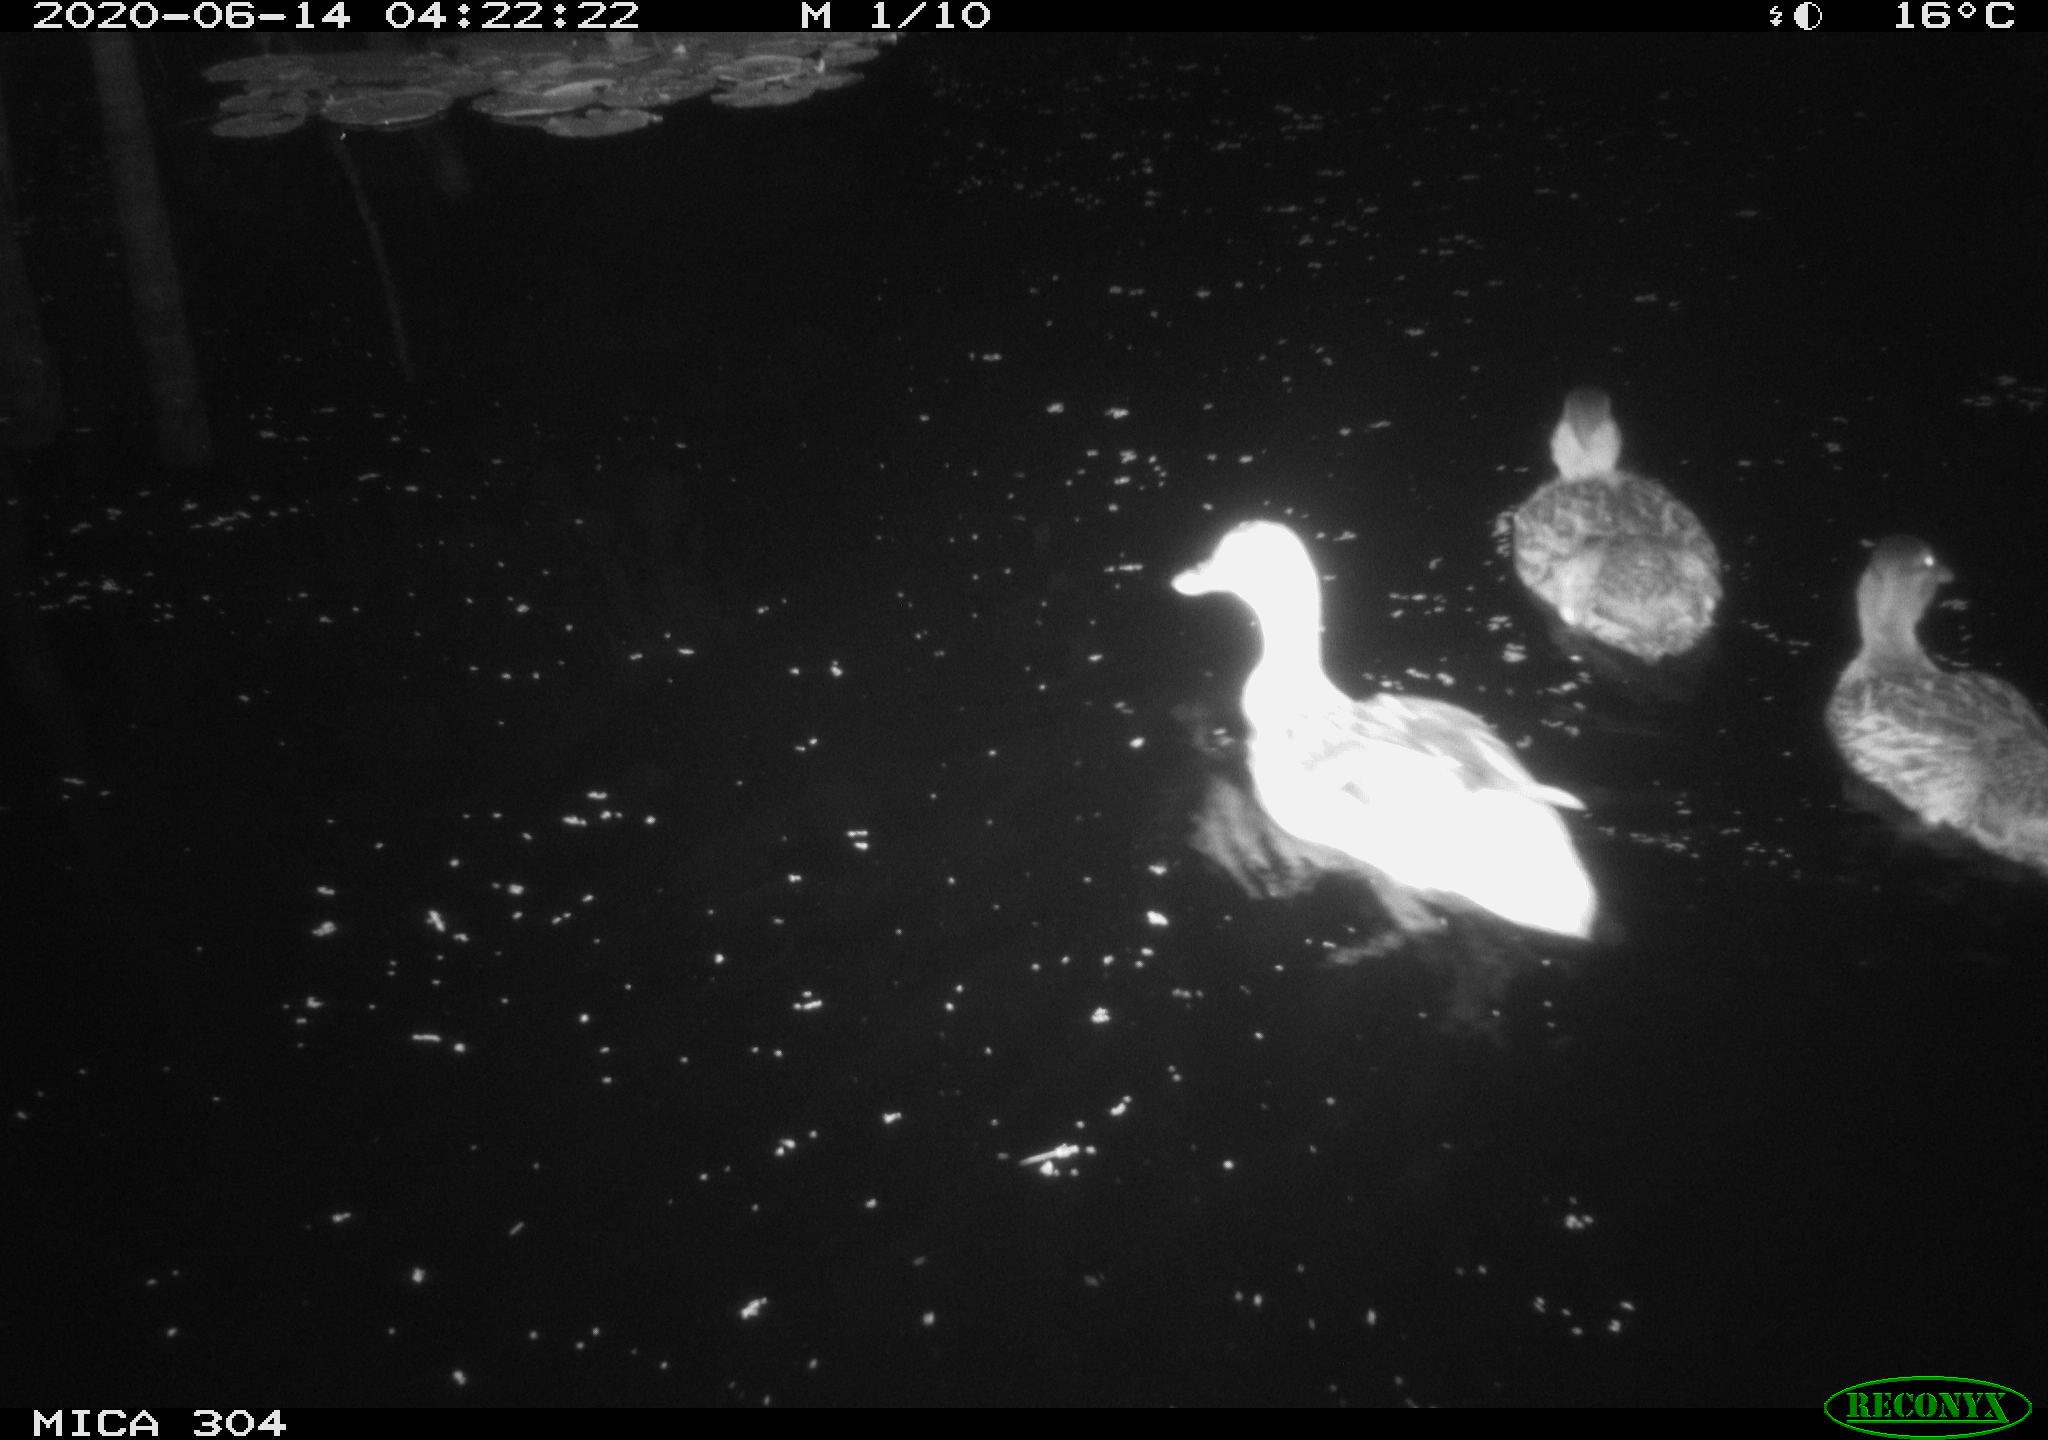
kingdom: Animalia
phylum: Chordata
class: Aves
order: Anseriformes
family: Anatidae
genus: Anas
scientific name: Anas platyrhynchos
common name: Mallard
